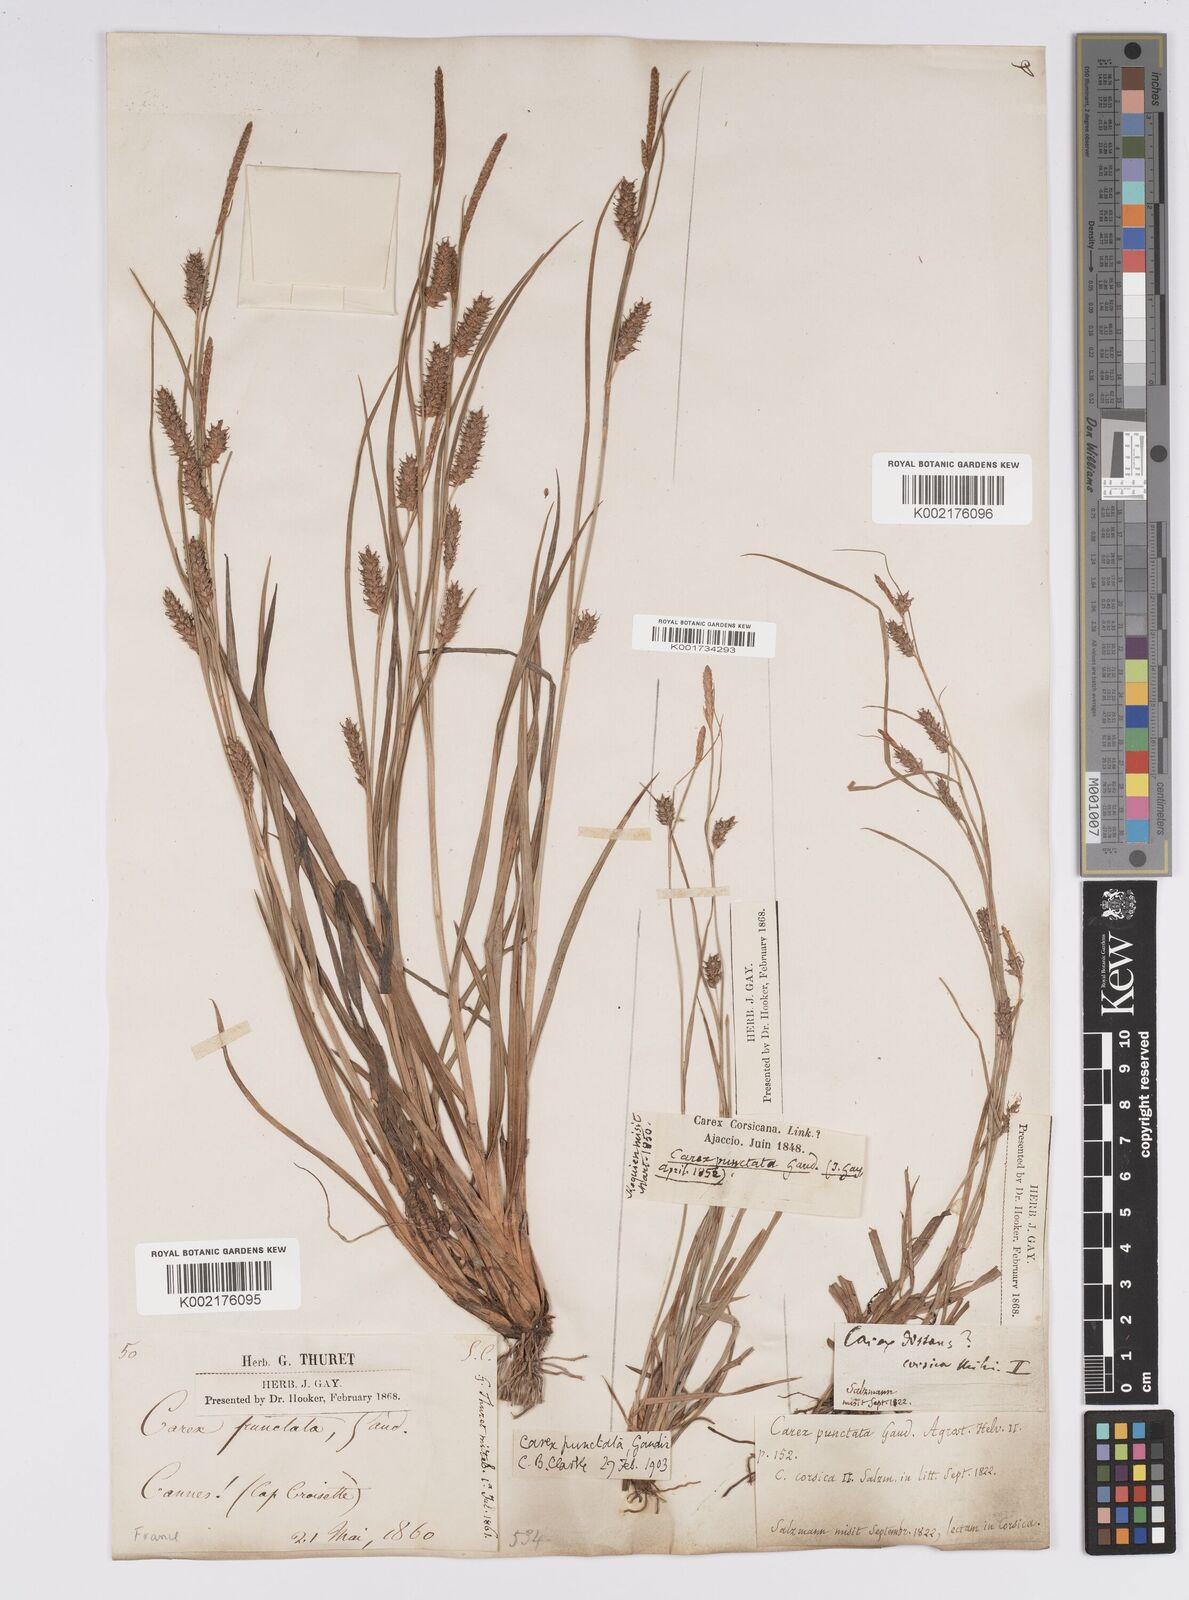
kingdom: Plantae
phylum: Tracheophyta
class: Liliopsida
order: Poales
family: Cyperaceae
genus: Carex
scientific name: Carex punctata
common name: Dotted sedge
